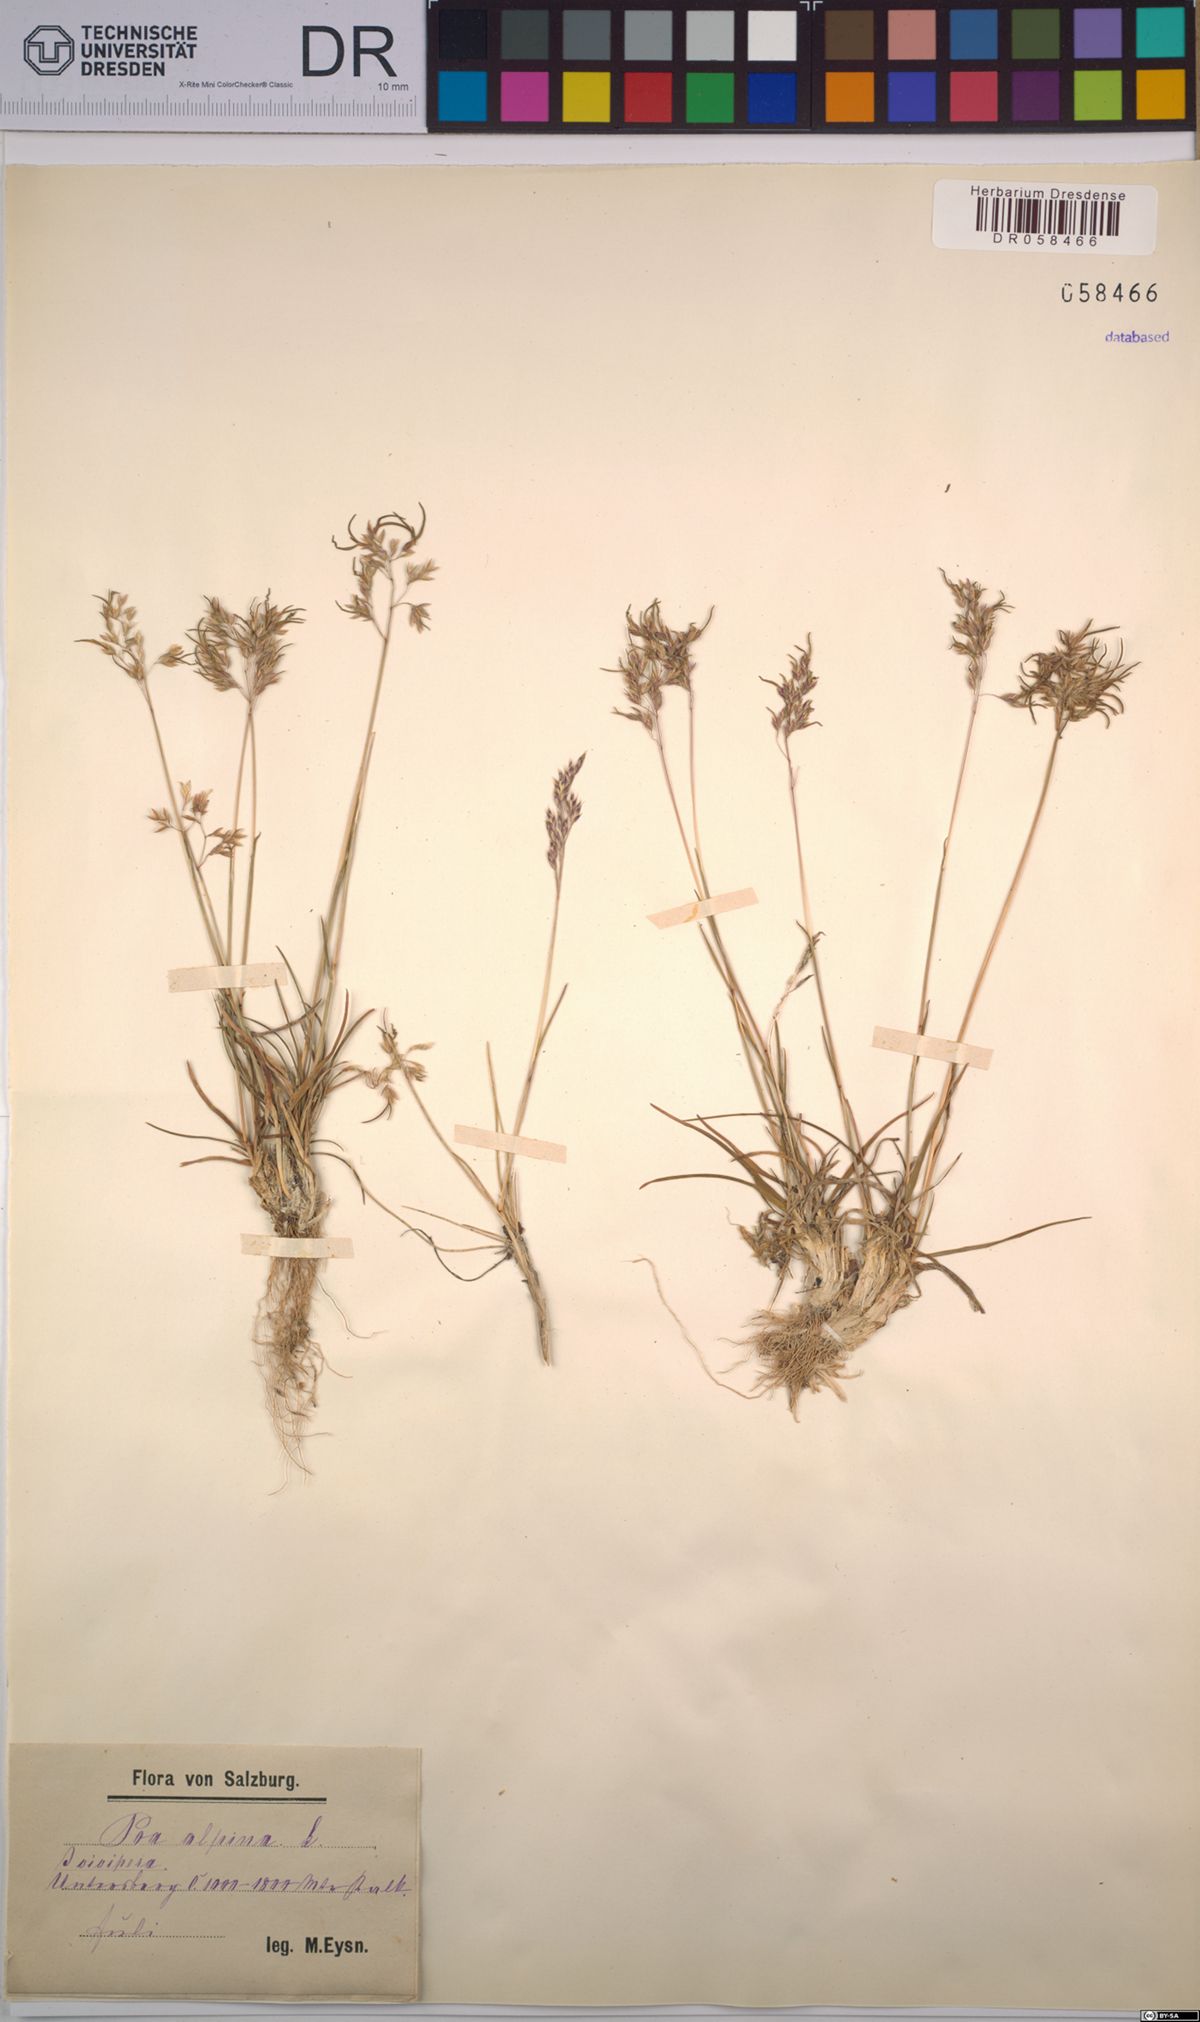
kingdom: Plantae
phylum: Tracheophyta
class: Liliopsida
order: Poales
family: Poaceae
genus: Poa
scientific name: Poa alpina
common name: Alpine bluegrass
